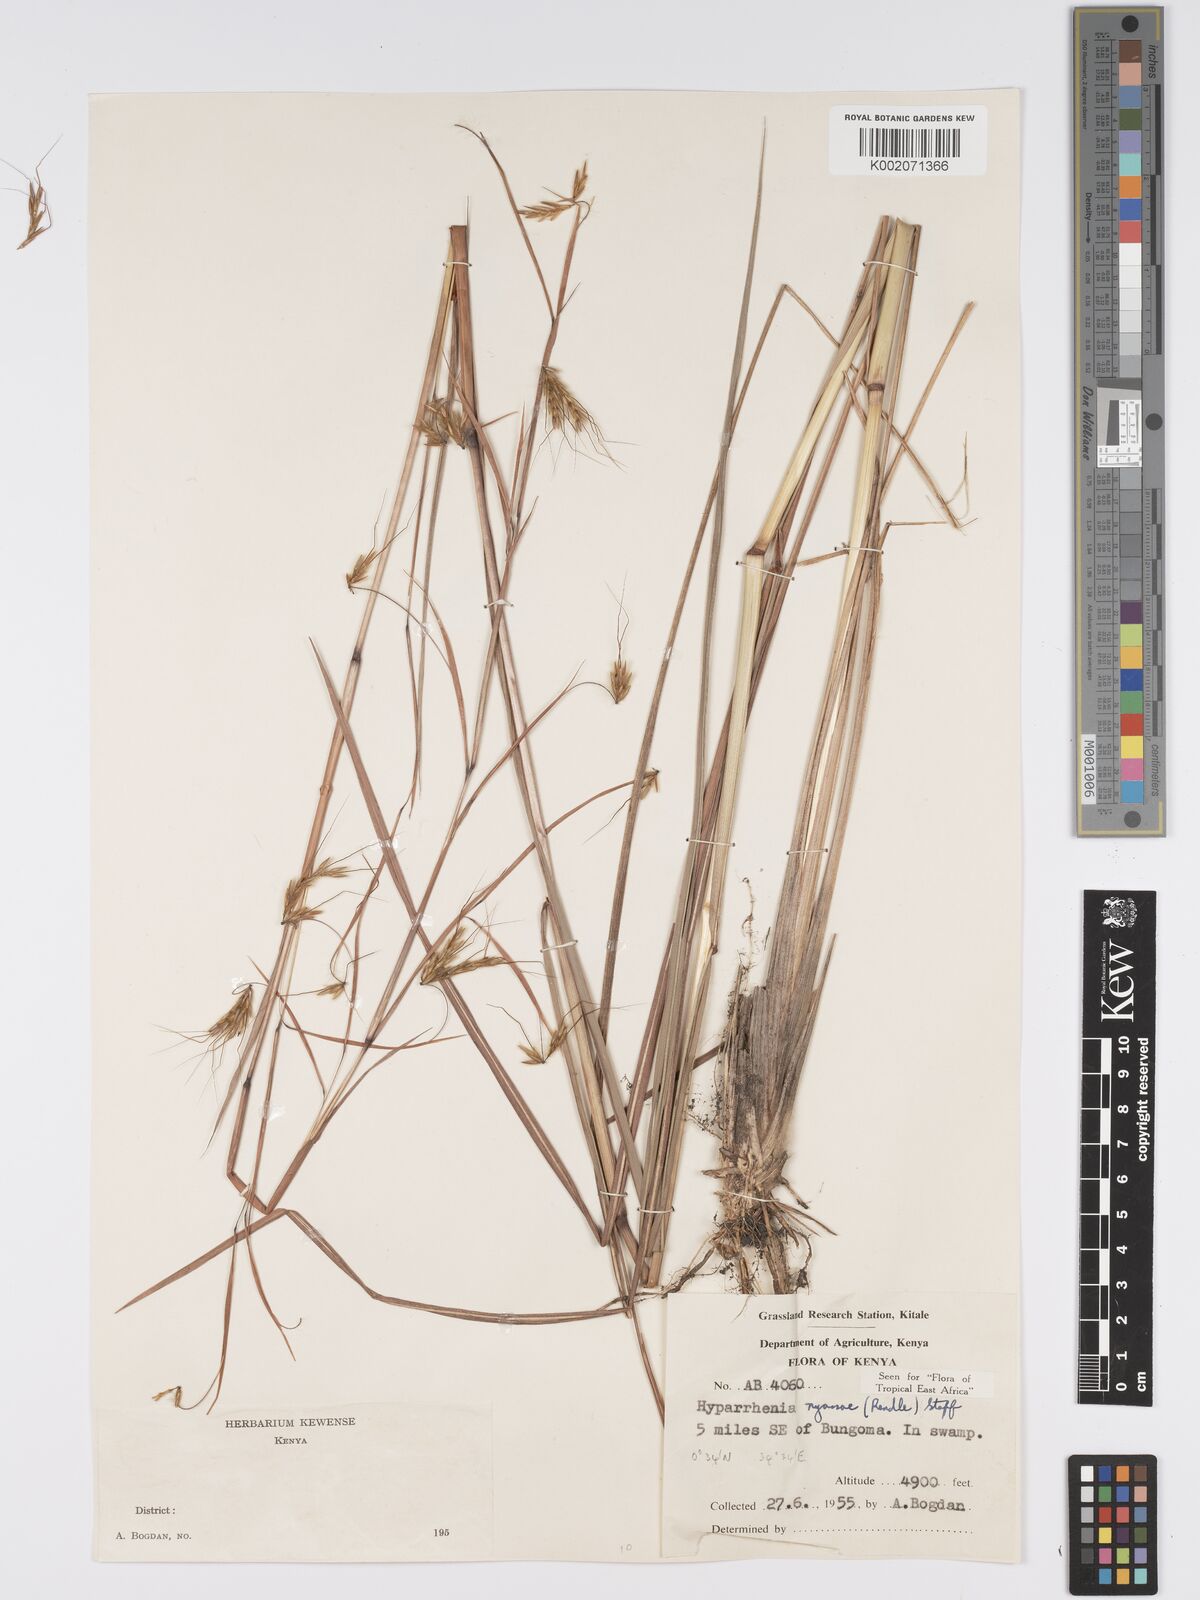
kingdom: Plantae
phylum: Tracheophyta
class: Liliopsida
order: Poales
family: Poaceae
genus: Hyparrhenia
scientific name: Hyparrhenia nyassae
